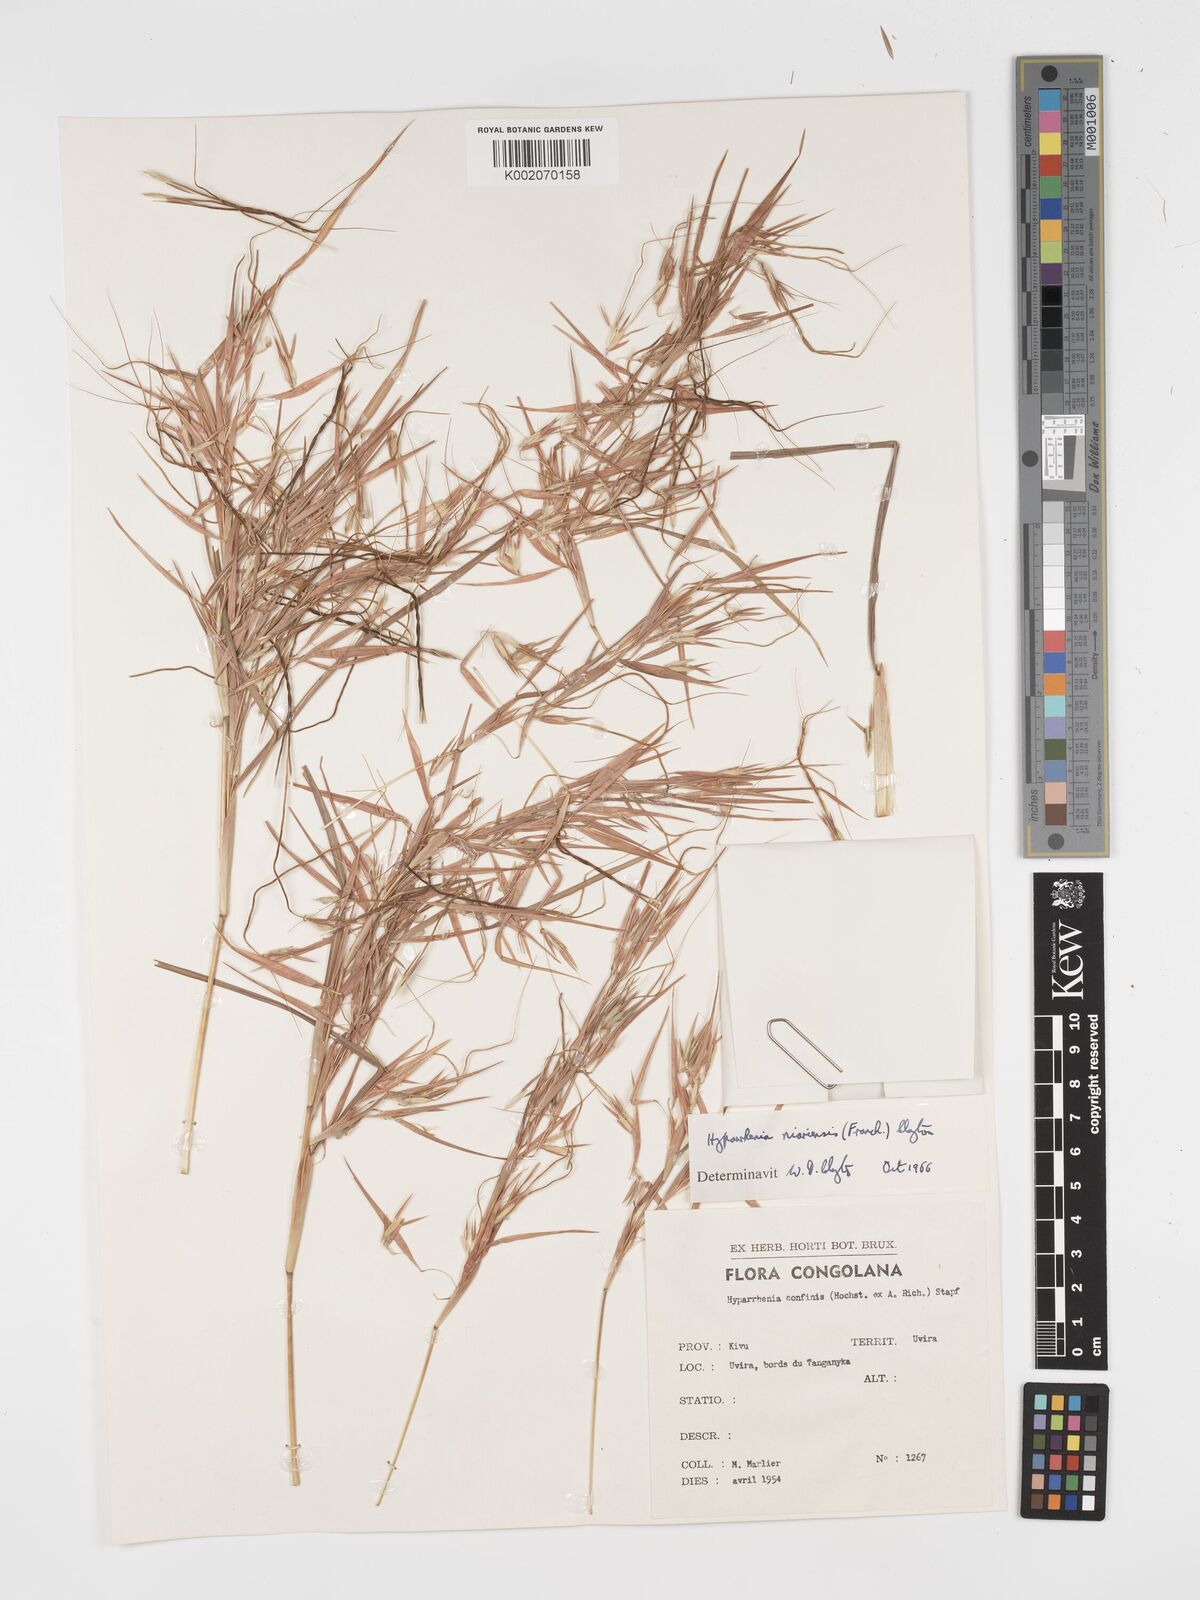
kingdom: Plantae
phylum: Tracheophyta
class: Liliopsida
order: Poales
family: Poaceae
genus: Hyparrhenia
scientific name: Hyparrhenia niariensis
